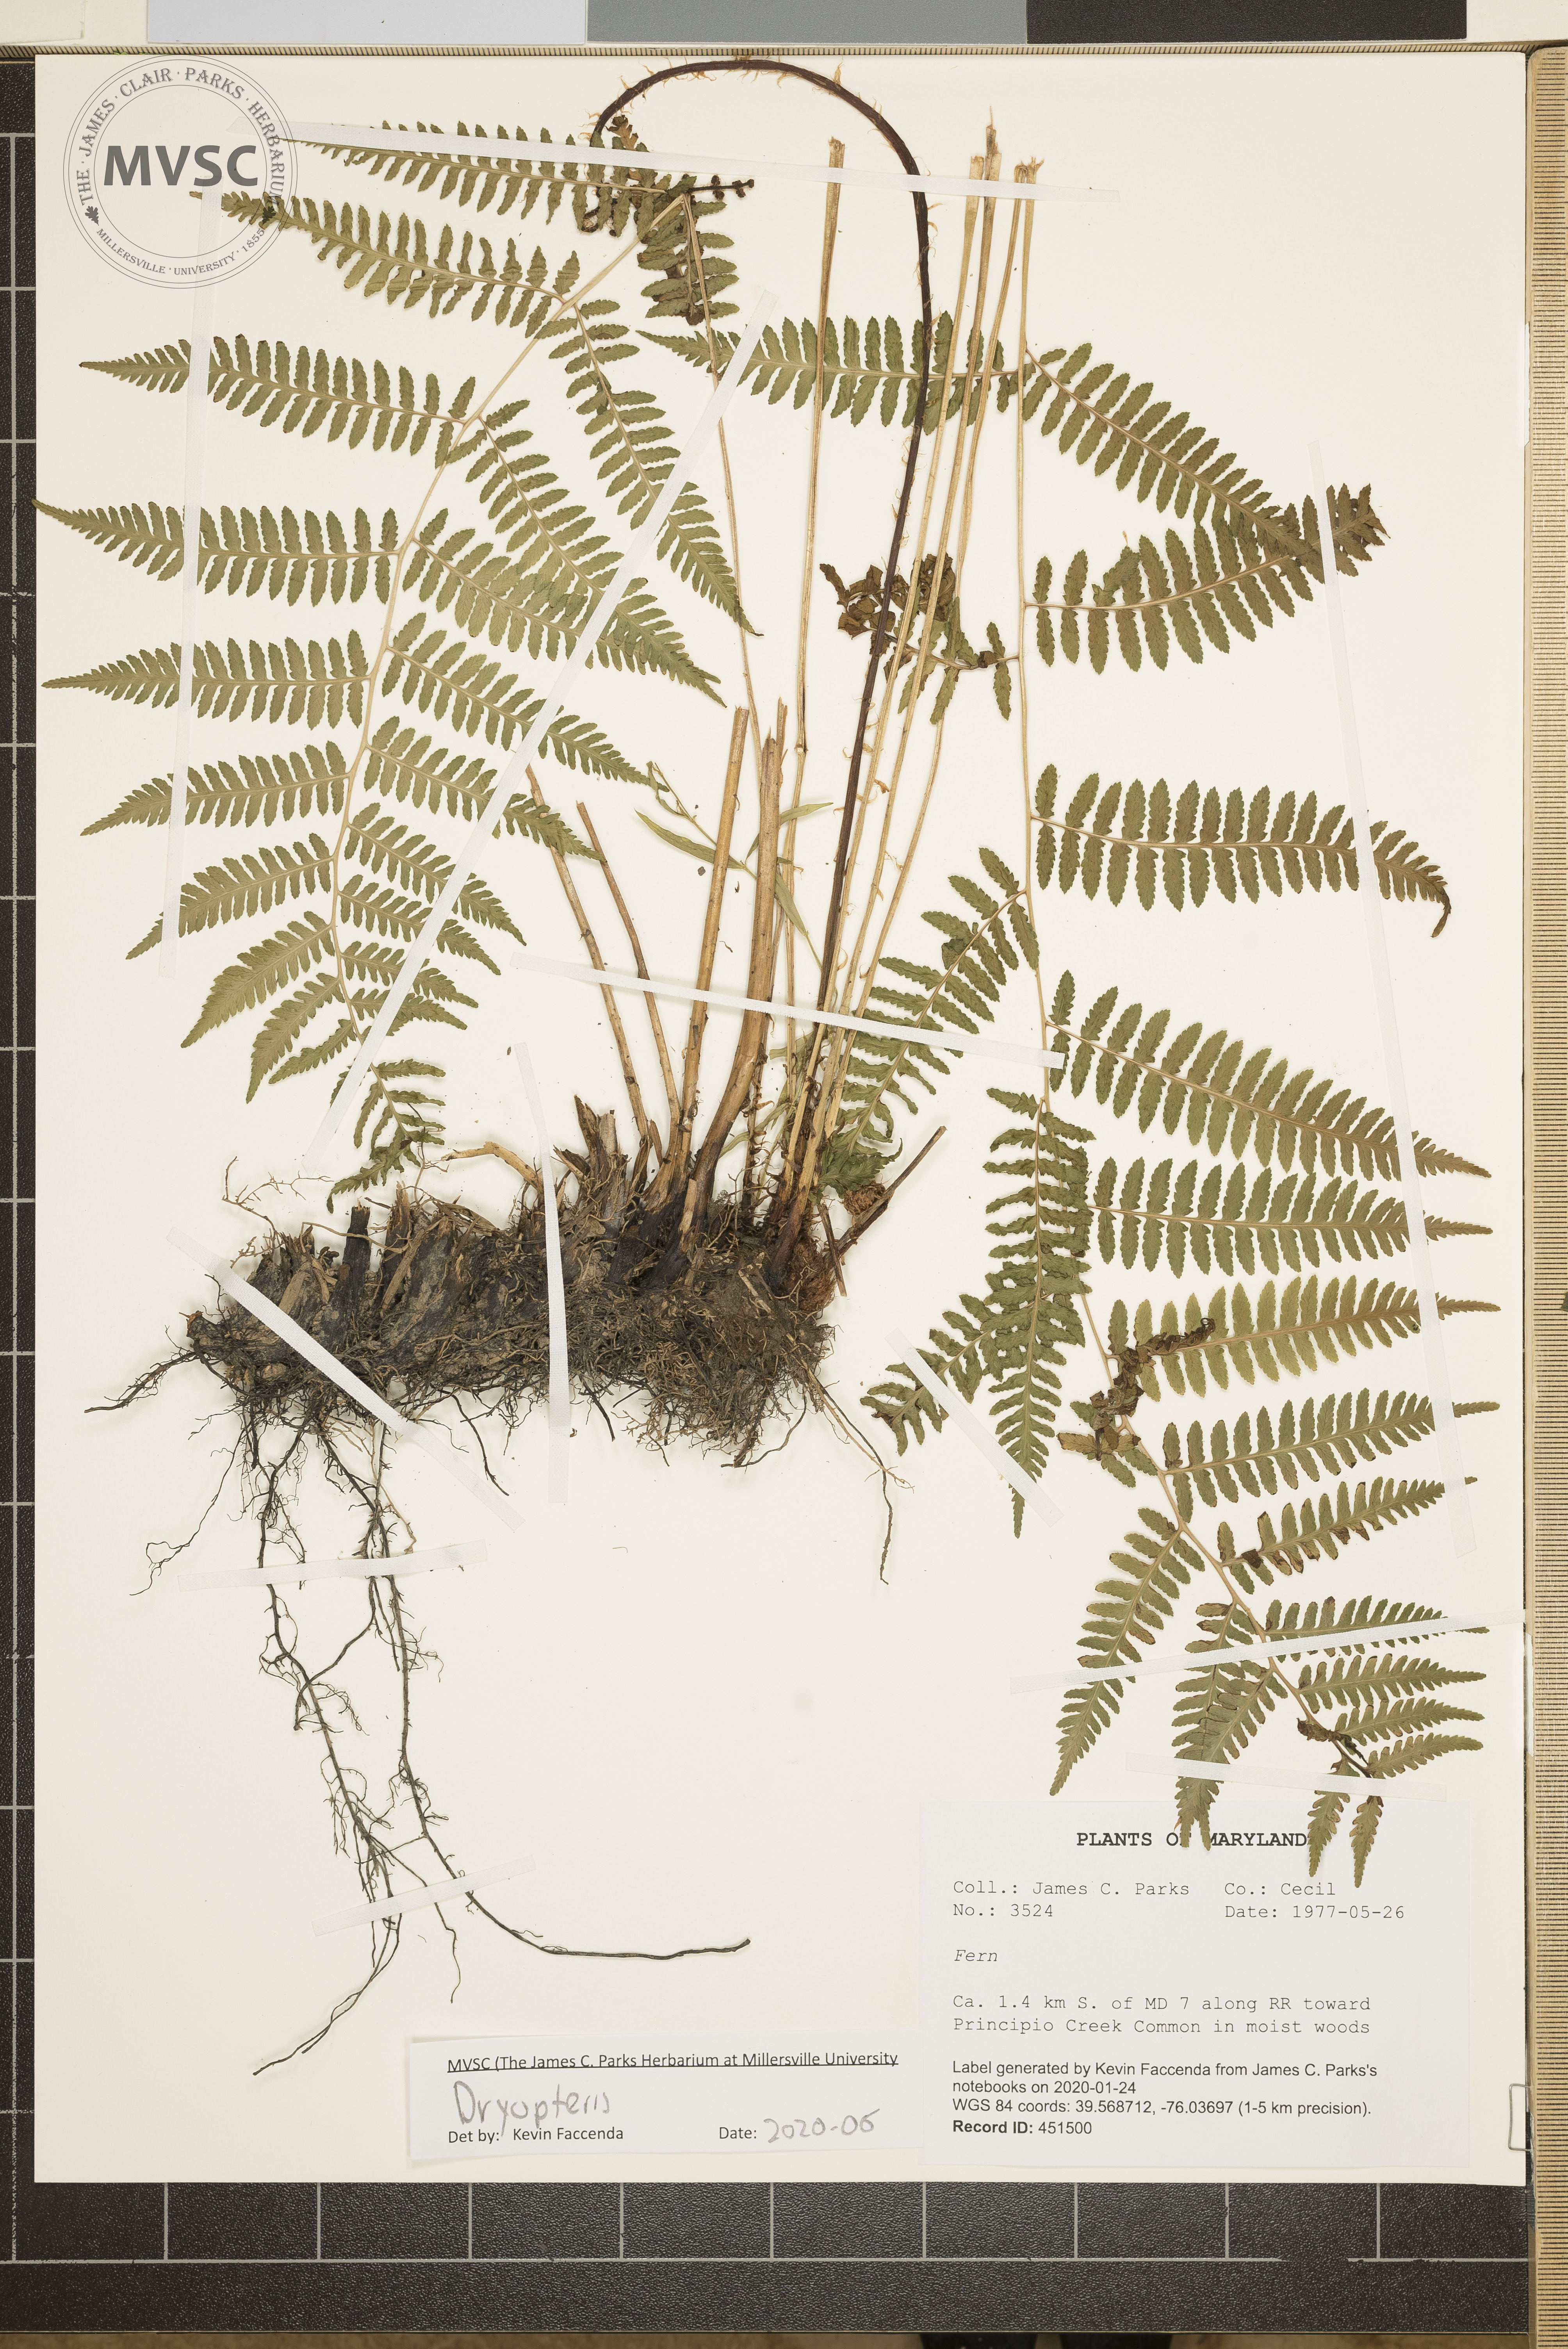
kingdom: Plantae
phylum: Tracheophyta
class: Polypodiopsida
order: Polypodiales
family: Dryopteridaceae
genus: Dryopteris
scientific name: Dryopteris
